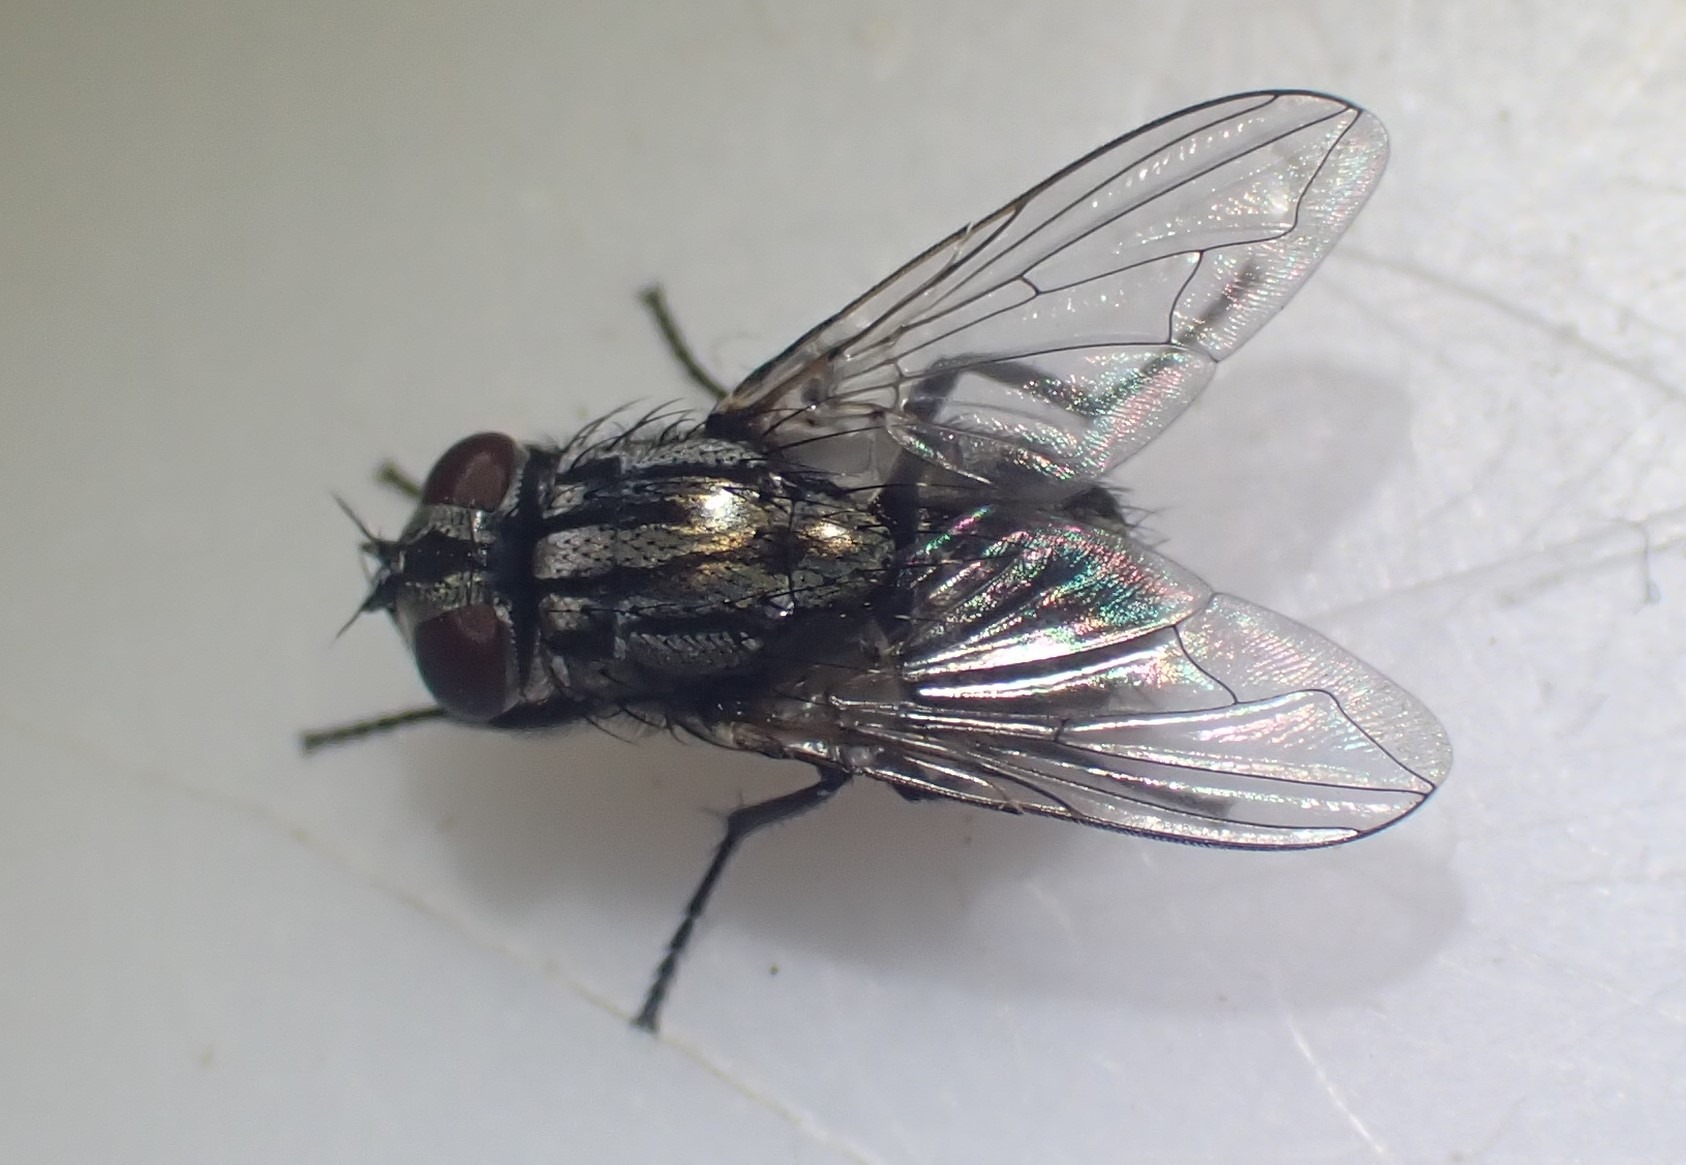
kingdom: Animalia
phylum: Arthropoda
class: Insecta
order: Diptera
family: Muscidae
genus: Musca
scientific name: Musca autumnalis
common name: Kvægflue
